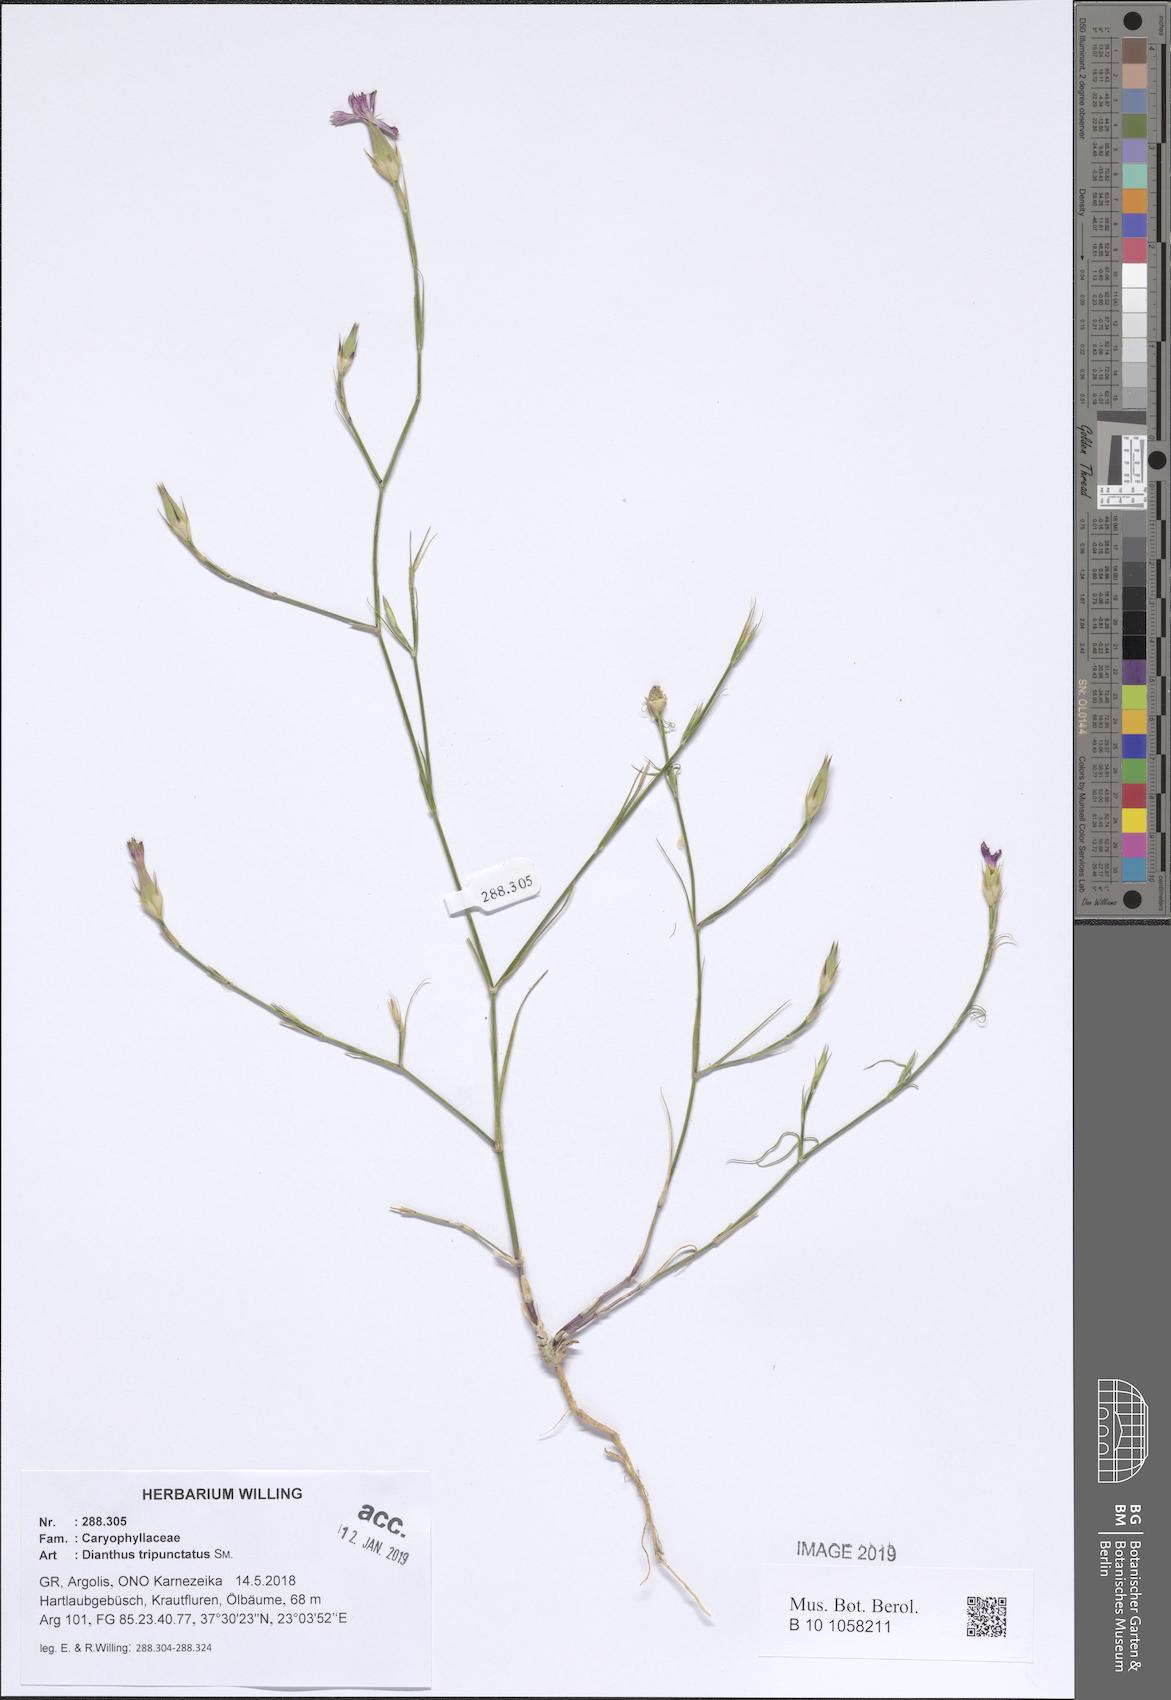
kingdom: Plantae
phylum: Tracheophyta
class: Magnoliopsida
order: Caryophyllales
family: Caryophyllaceae
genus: Dianthus
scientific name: Dianthus tripunctatus
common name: Three-spotted pink
